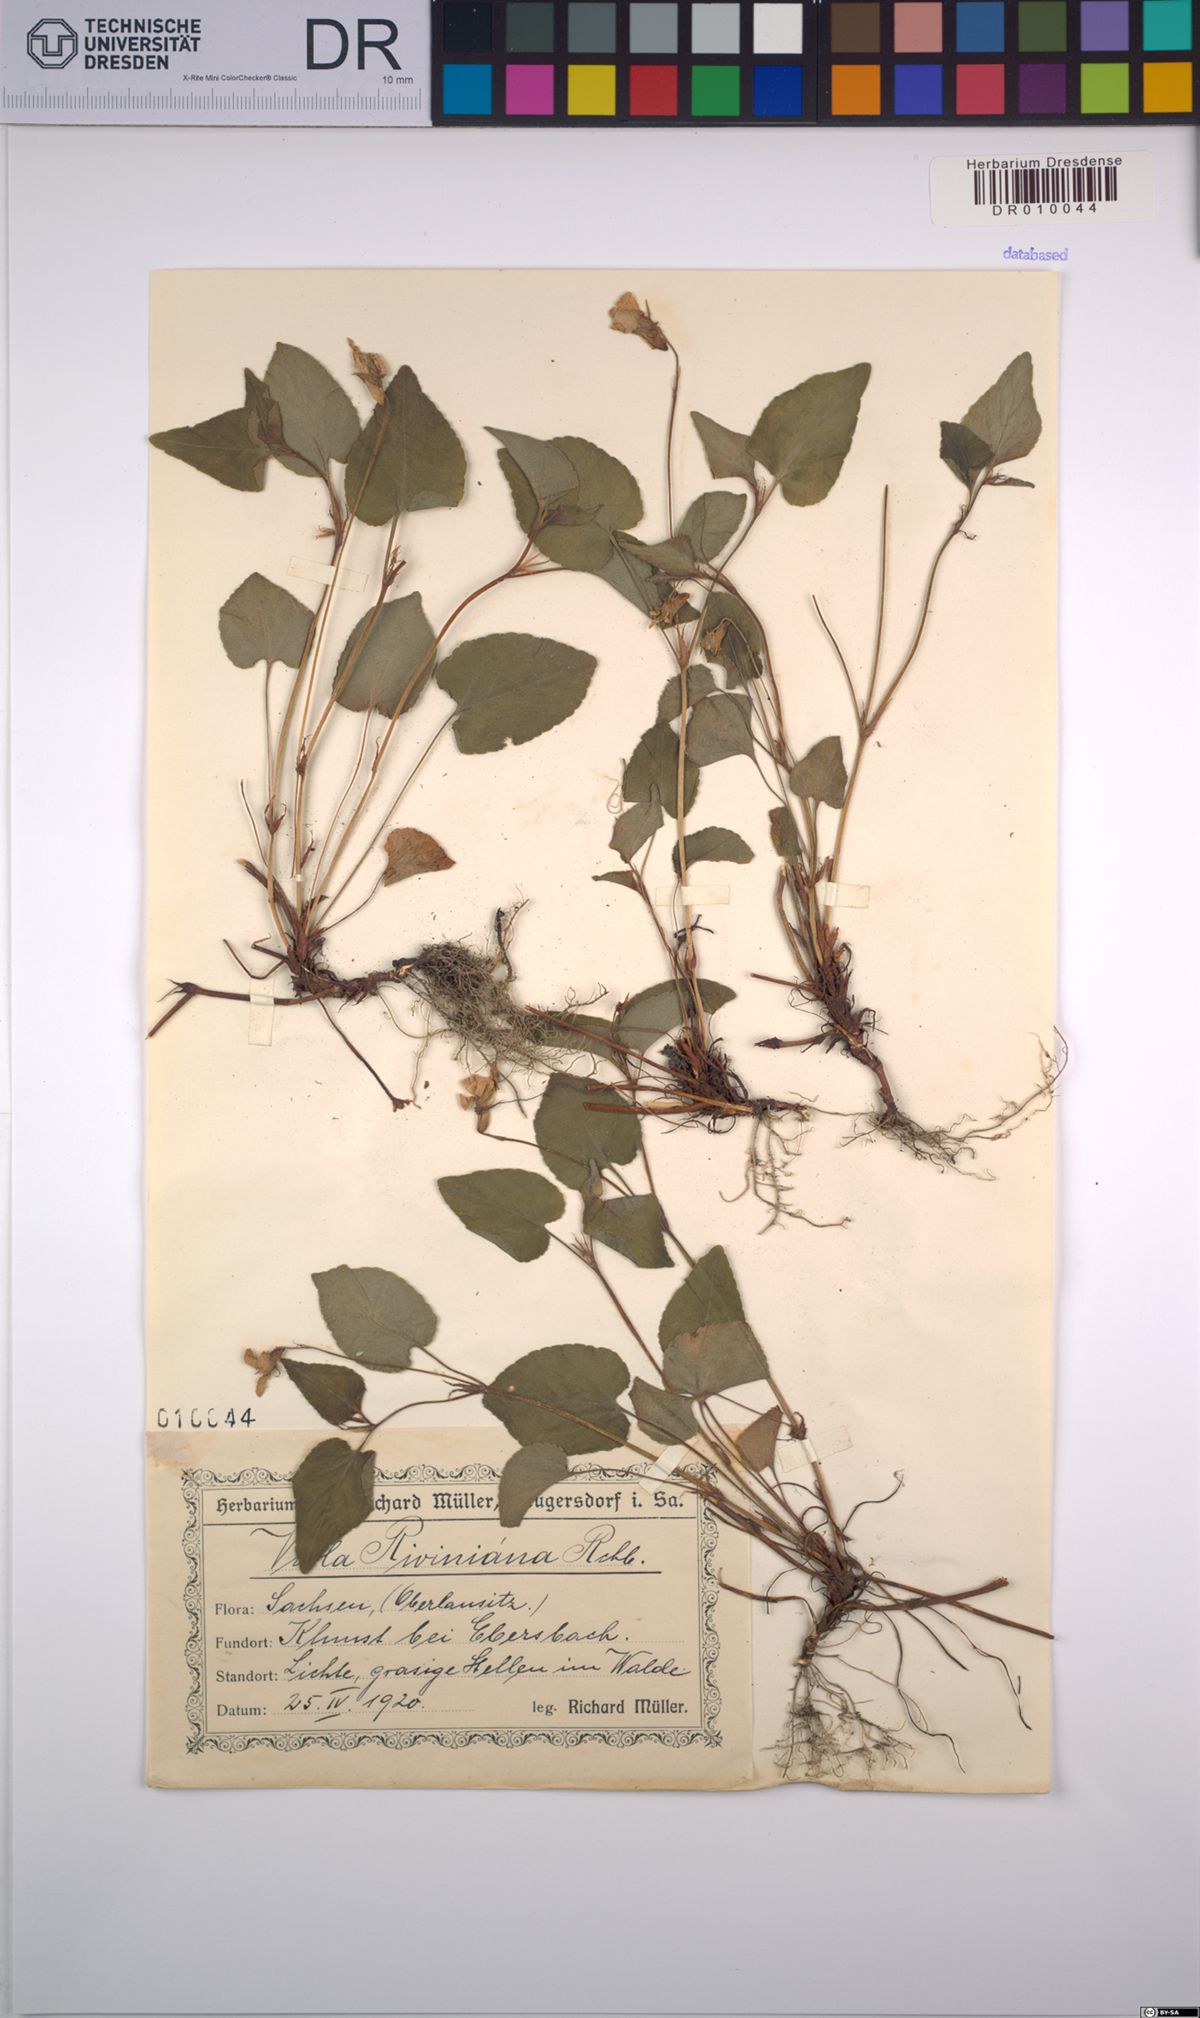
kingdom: Plantae
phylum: Tracheophyta
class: Magnoliopsida
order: Malpighiales
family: Violaceae
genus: Viola
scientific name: Viola riviniana
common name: Common dog-violet
